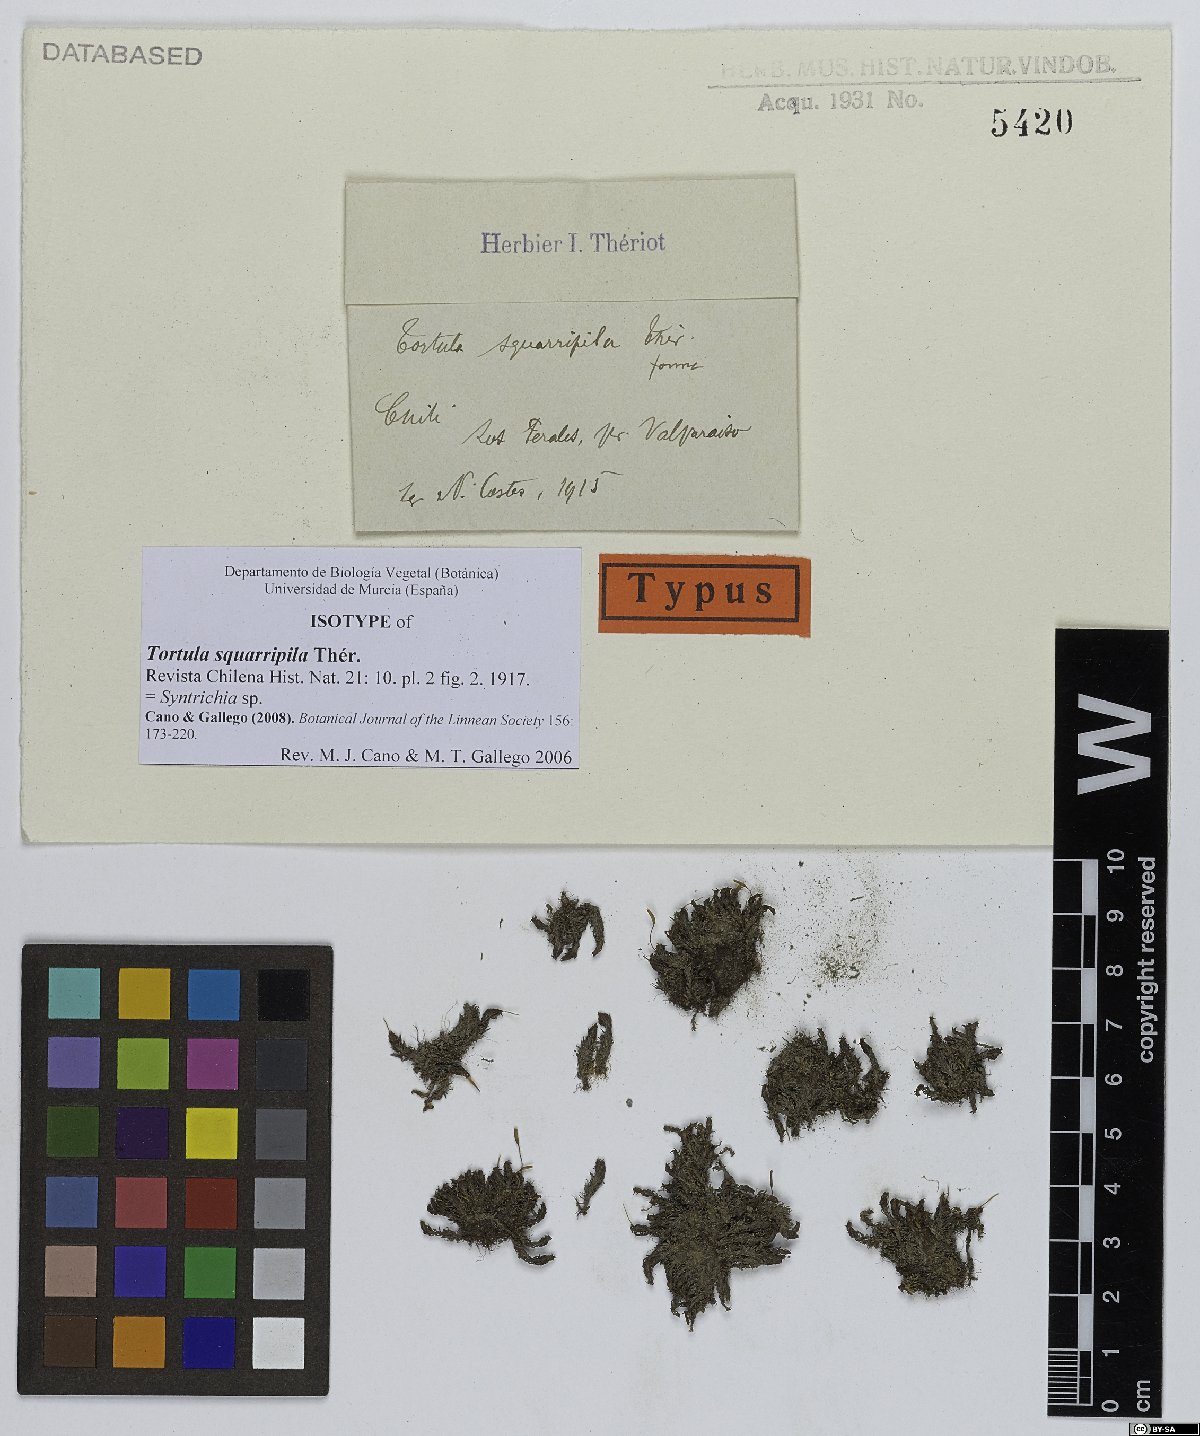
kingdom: Plantae
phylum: Bryophyta
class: Bryopsida
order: Pottiales
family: Pottiaceae
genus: Syntrichia
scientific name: Syntrichia squarripila
